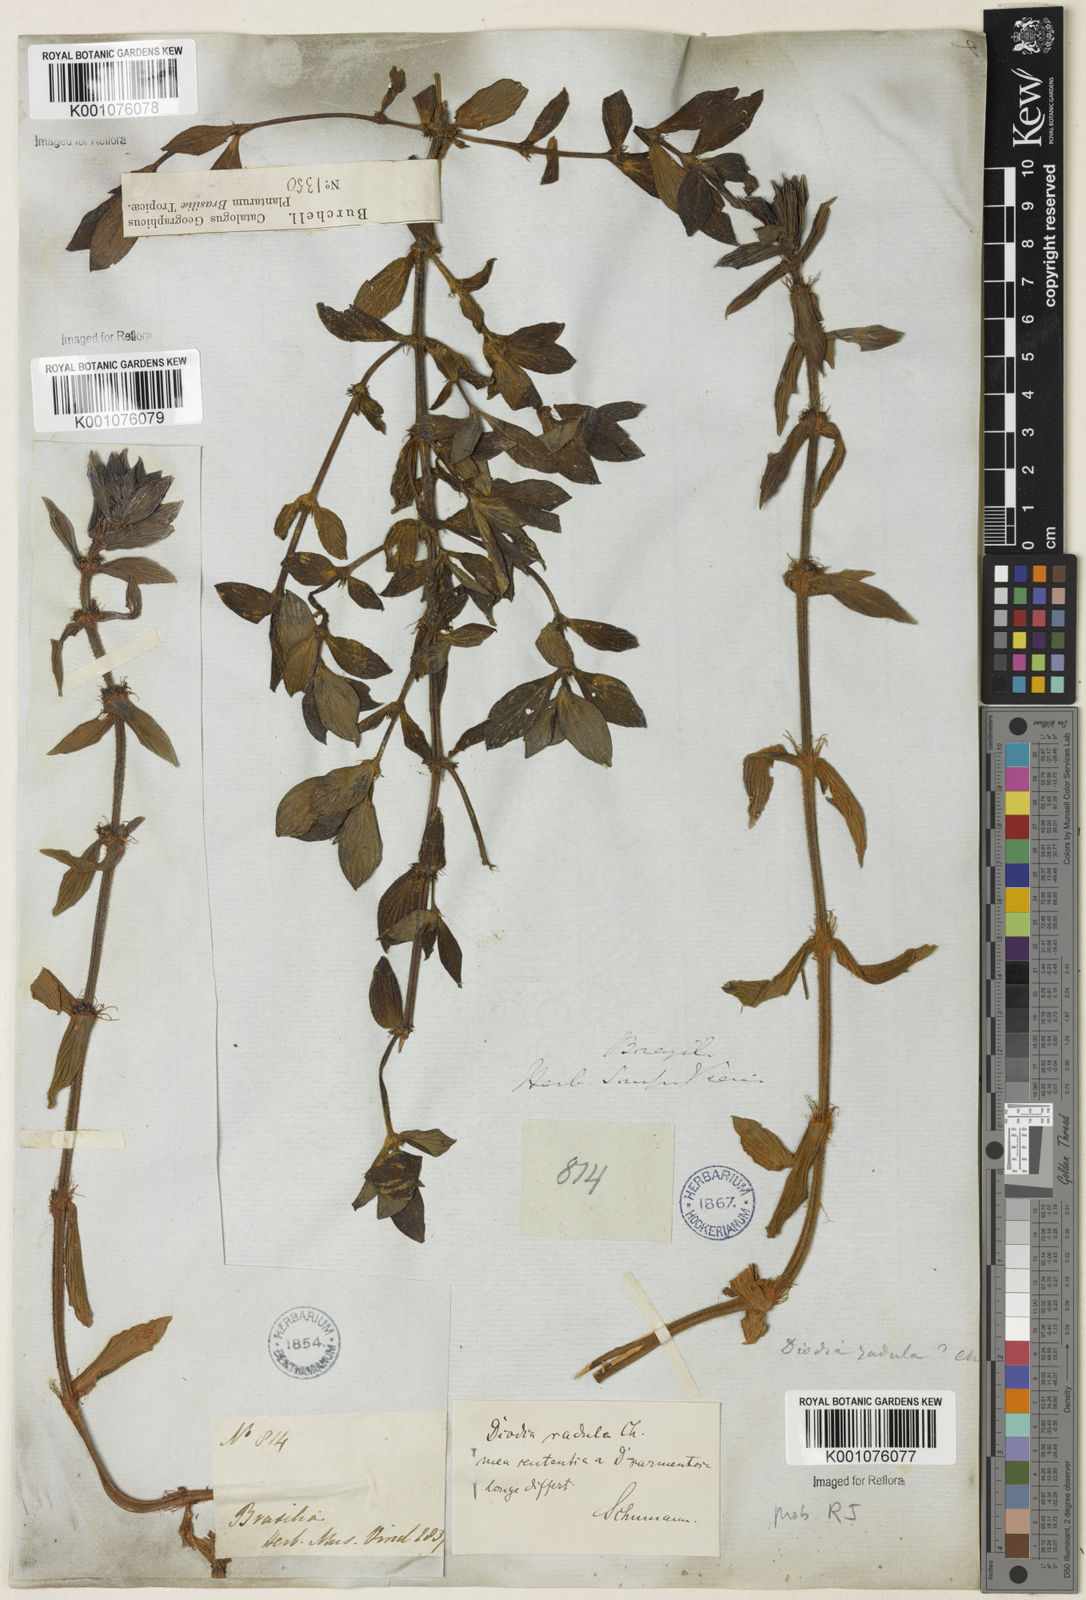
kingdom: Plantae
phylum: Tracheophyta
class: Magnoliopsida
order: Gentianales
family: Rubiaceae
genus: Hexasepalum
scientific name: Hexasepalum radulum
